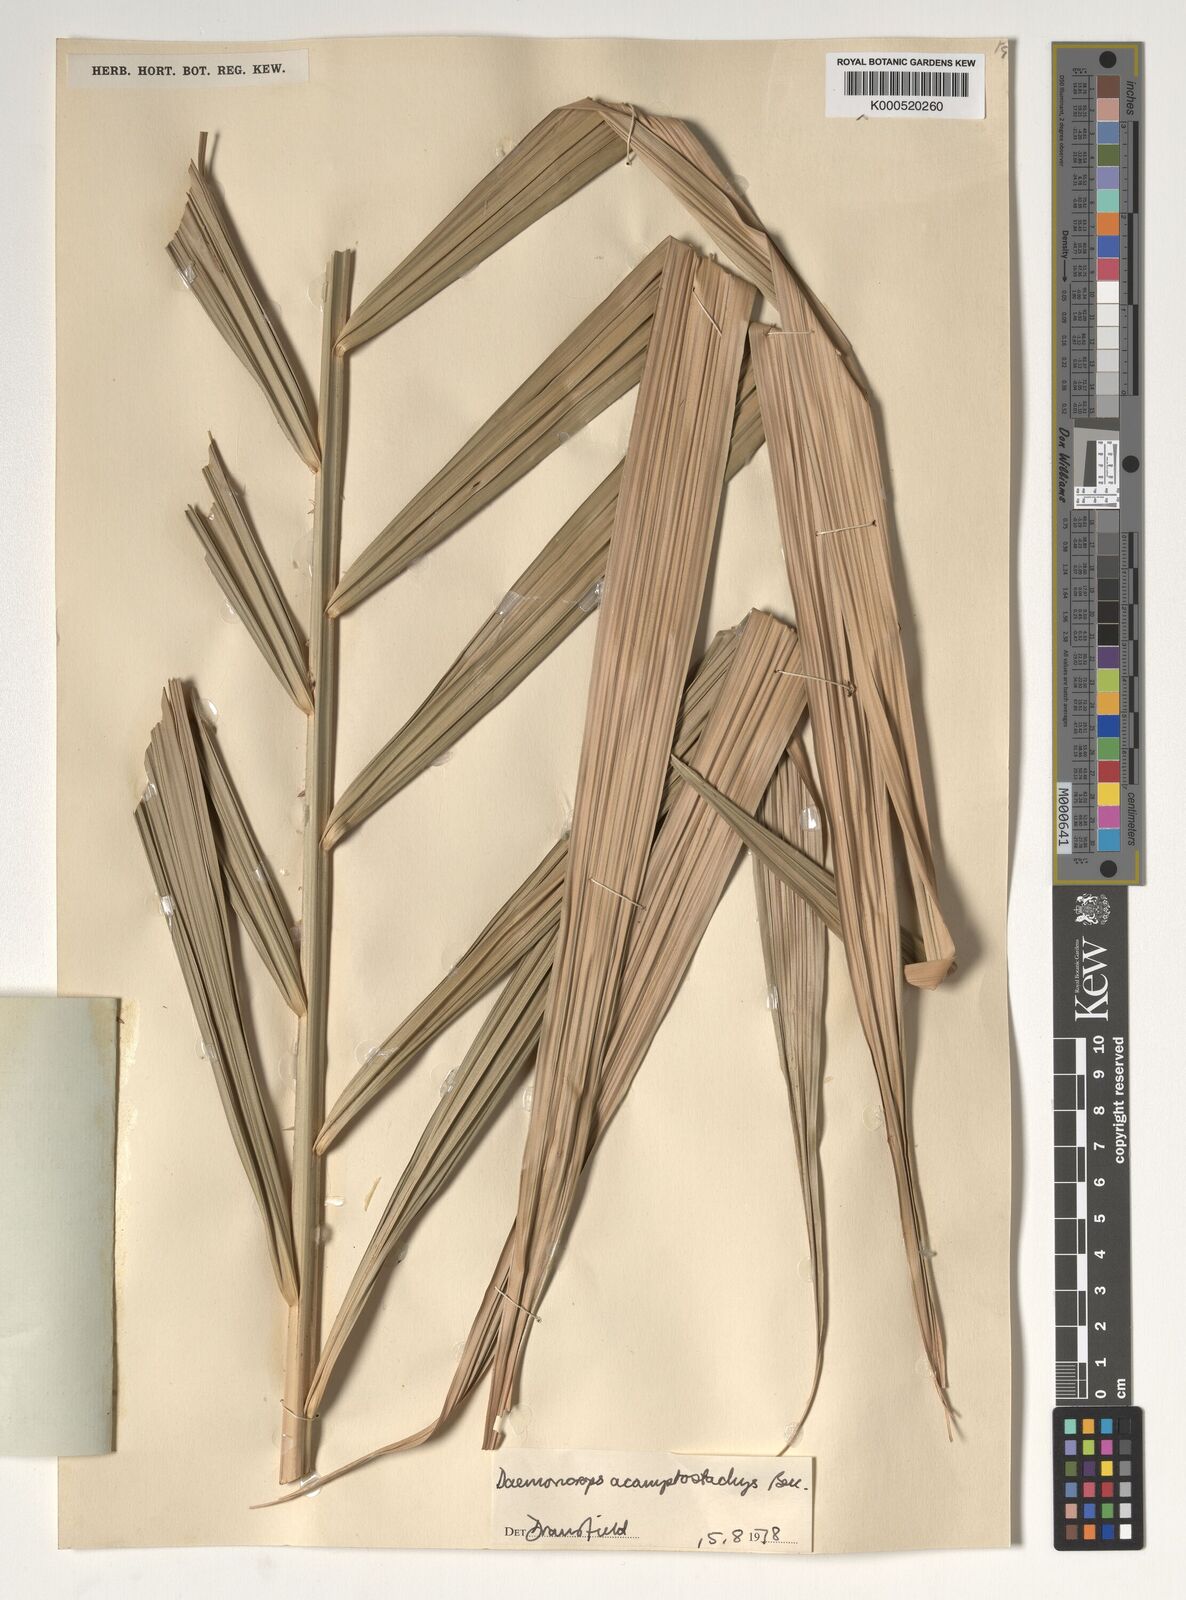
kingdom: Plantae
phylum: Tracheophyta
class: Liliopsida
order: Arecales
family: Arecaceae
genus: Calamus
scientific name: Calamus acamptostachys
